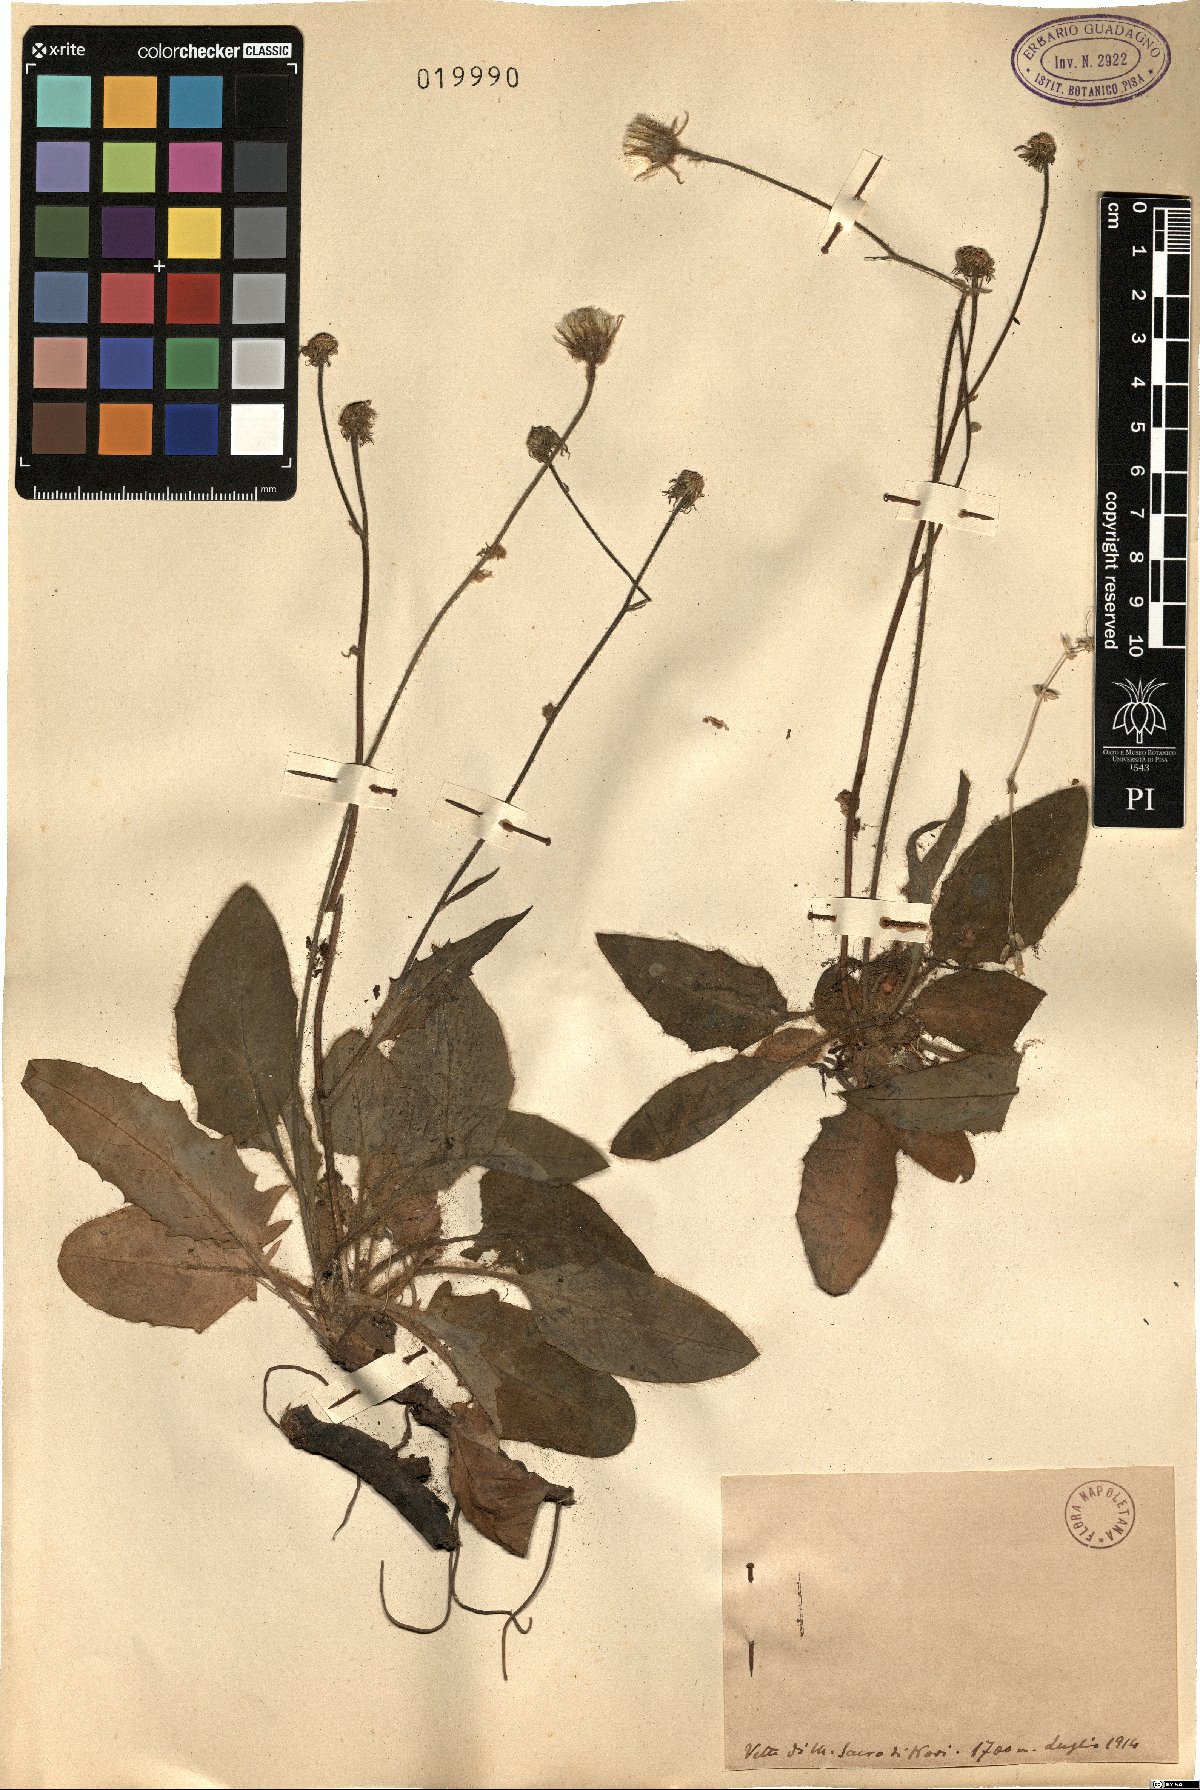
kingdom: Plantae
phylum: Tracheophyta
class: Magnoliopsida
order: Asterales
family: Asteraceae
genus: Hieracium
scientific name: Hieracium
